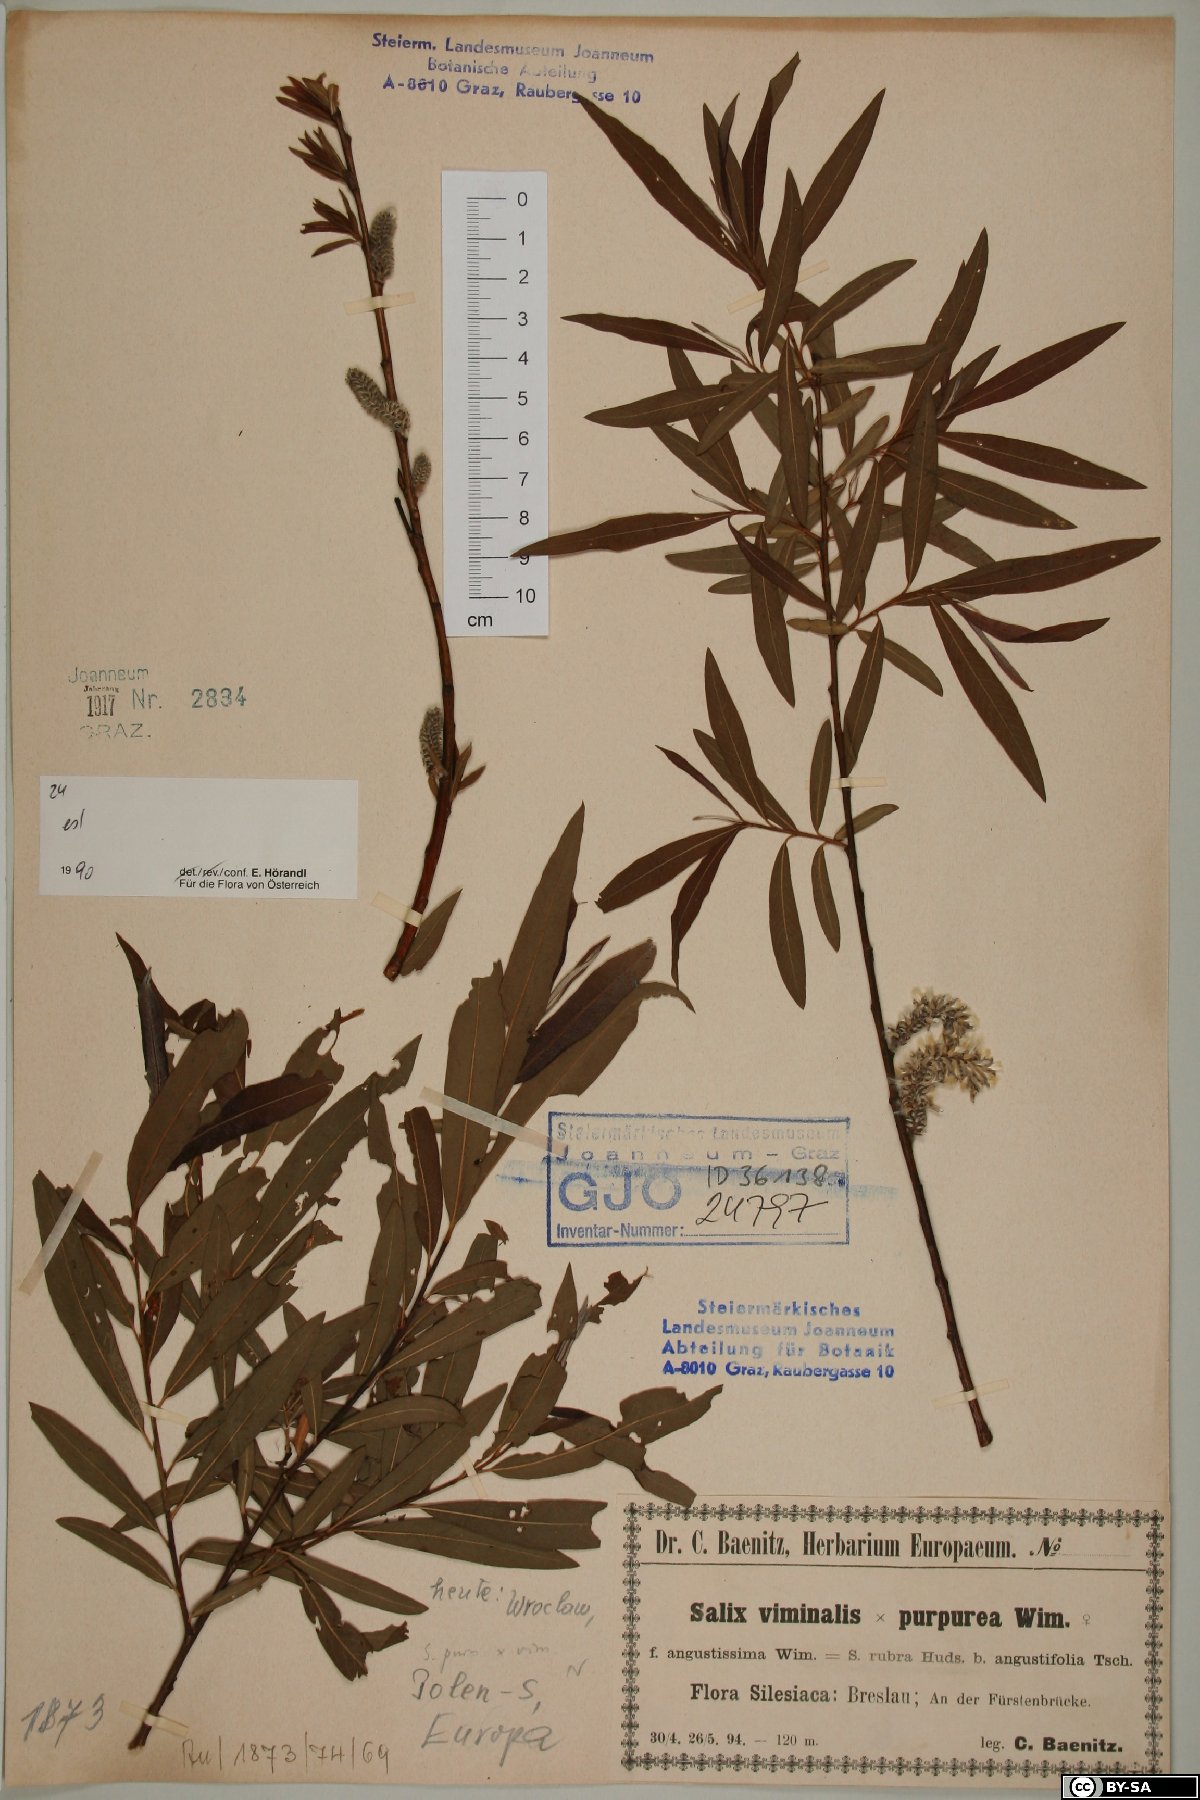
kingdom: Plantae
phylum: Tracheophyta
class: Magnoliopsida
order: Malpighiales
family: Salicaceae
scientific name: Salicaceae
